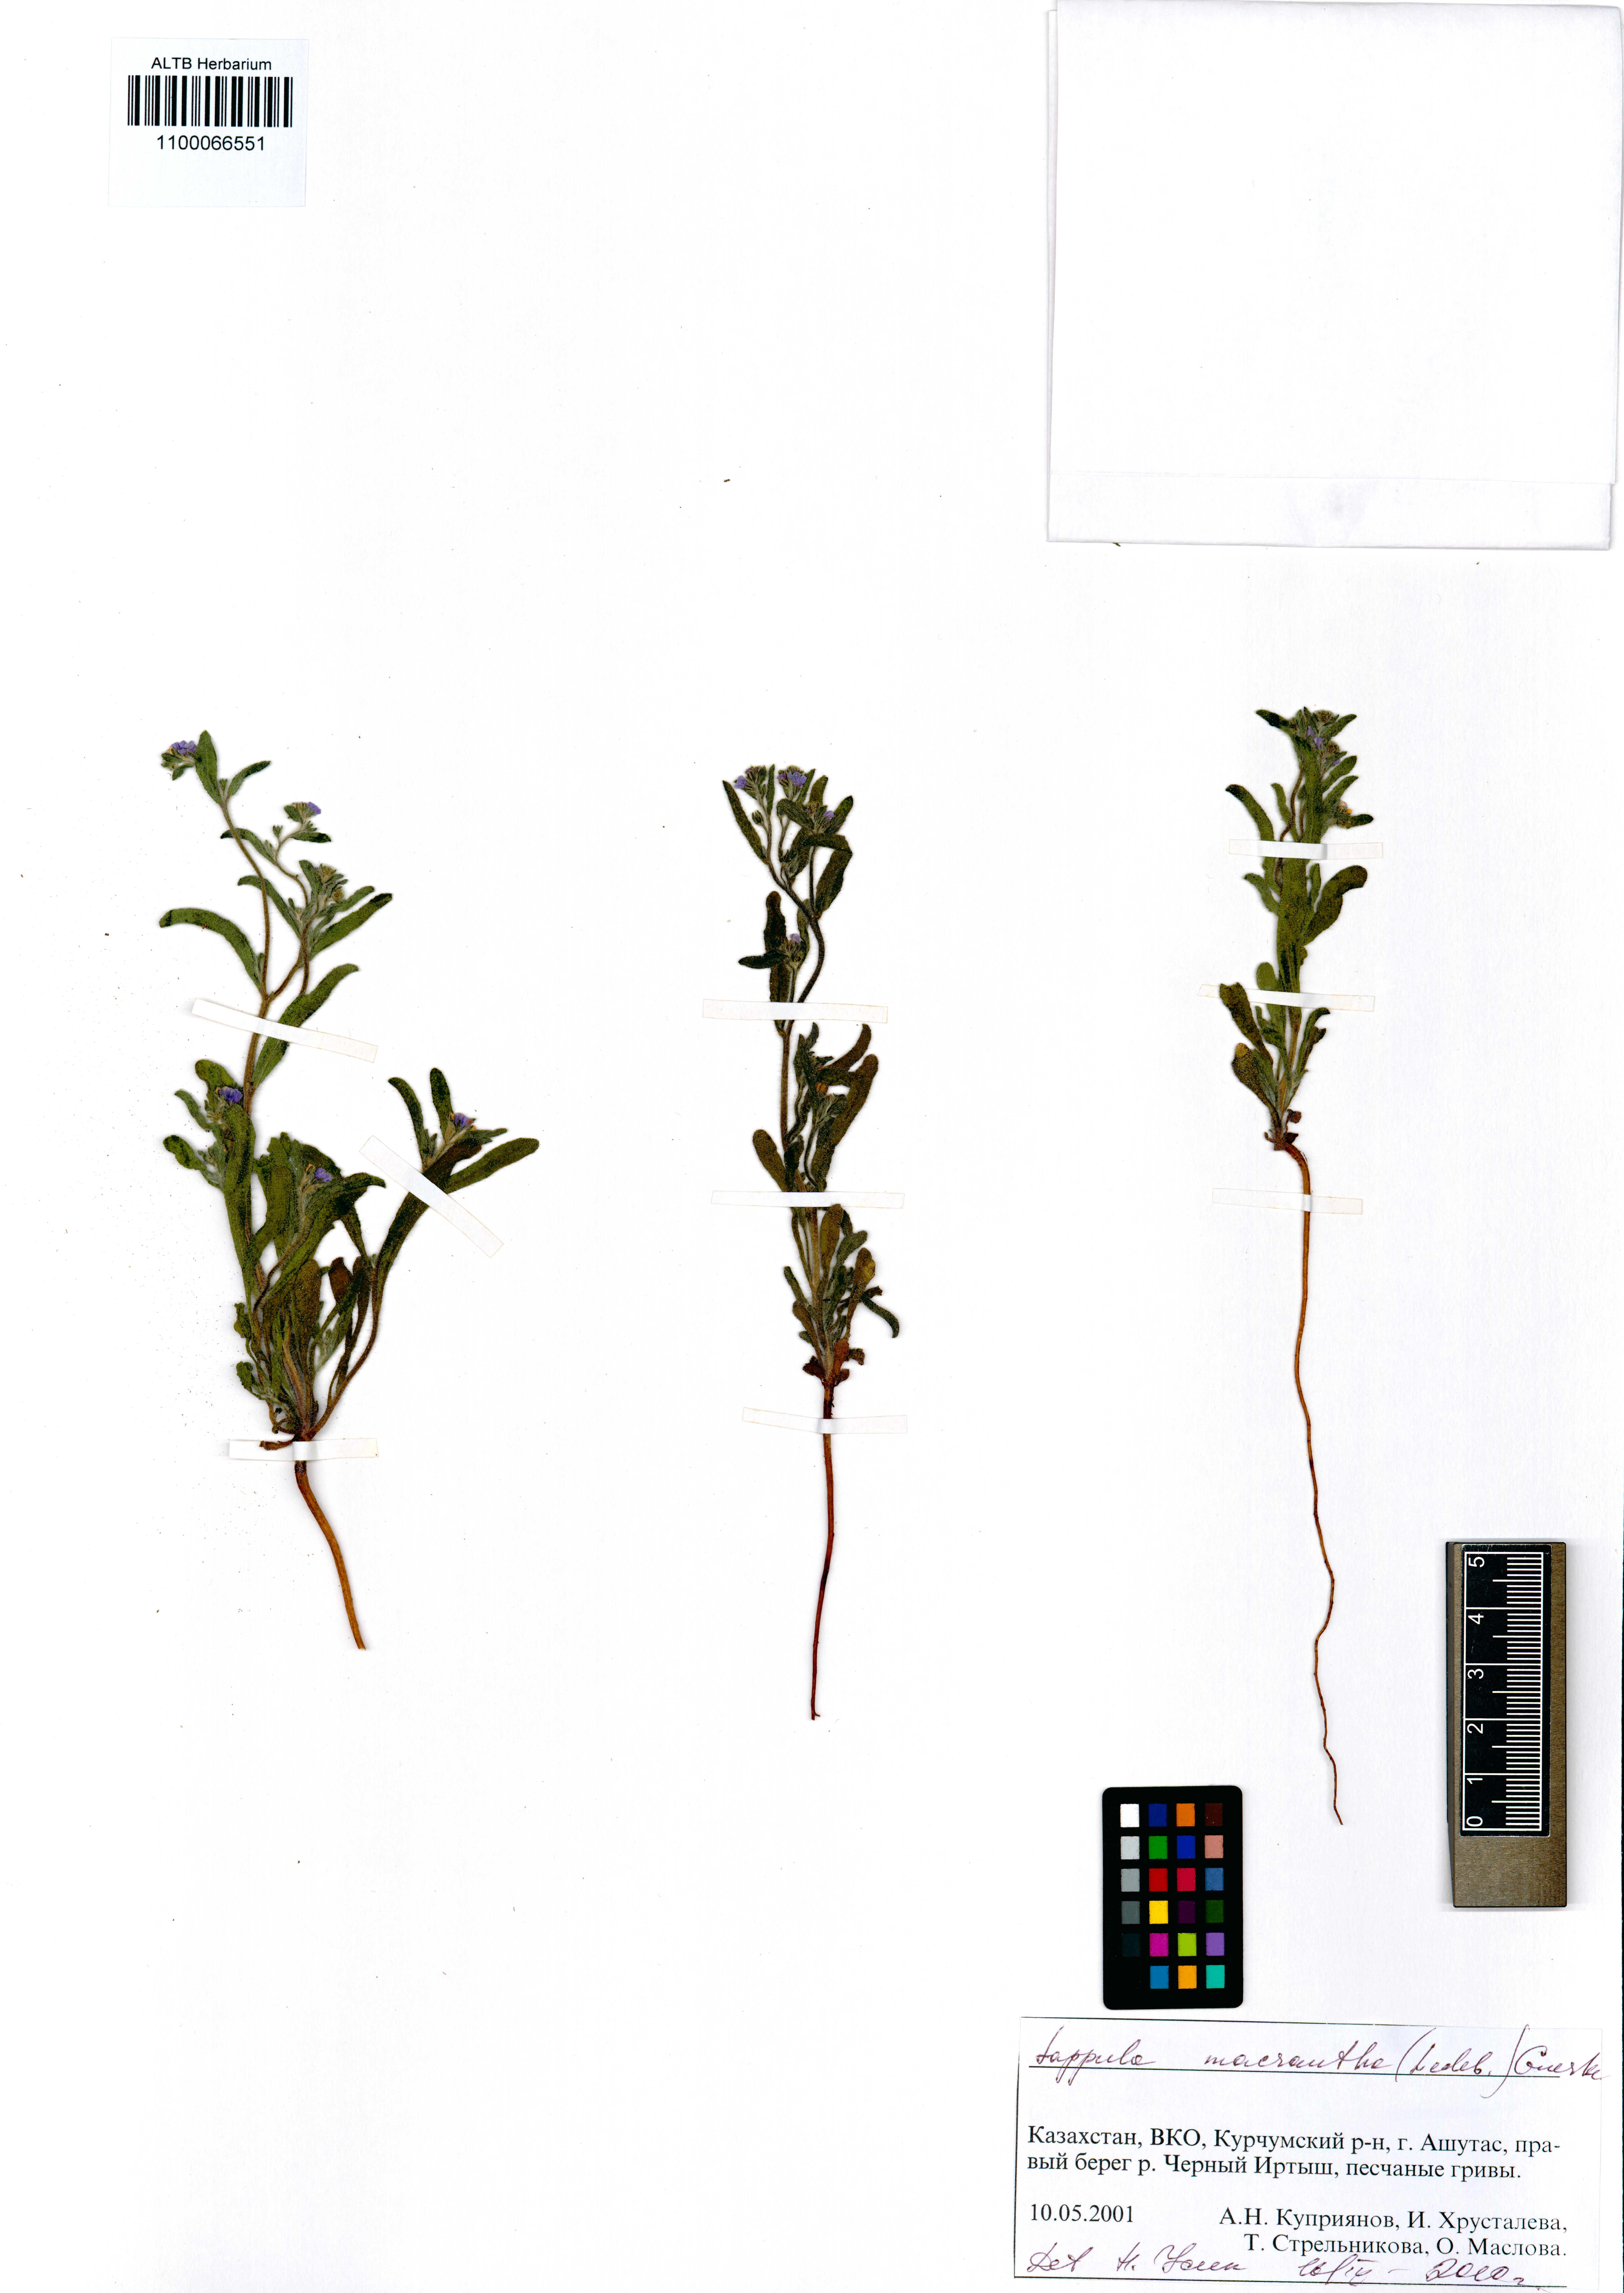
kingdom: Plantae
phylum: Tracheophyta
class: Magnoliopsida
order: Boraginales
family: Boraginaceae
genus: Lappula
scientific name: Lappula macrantha
